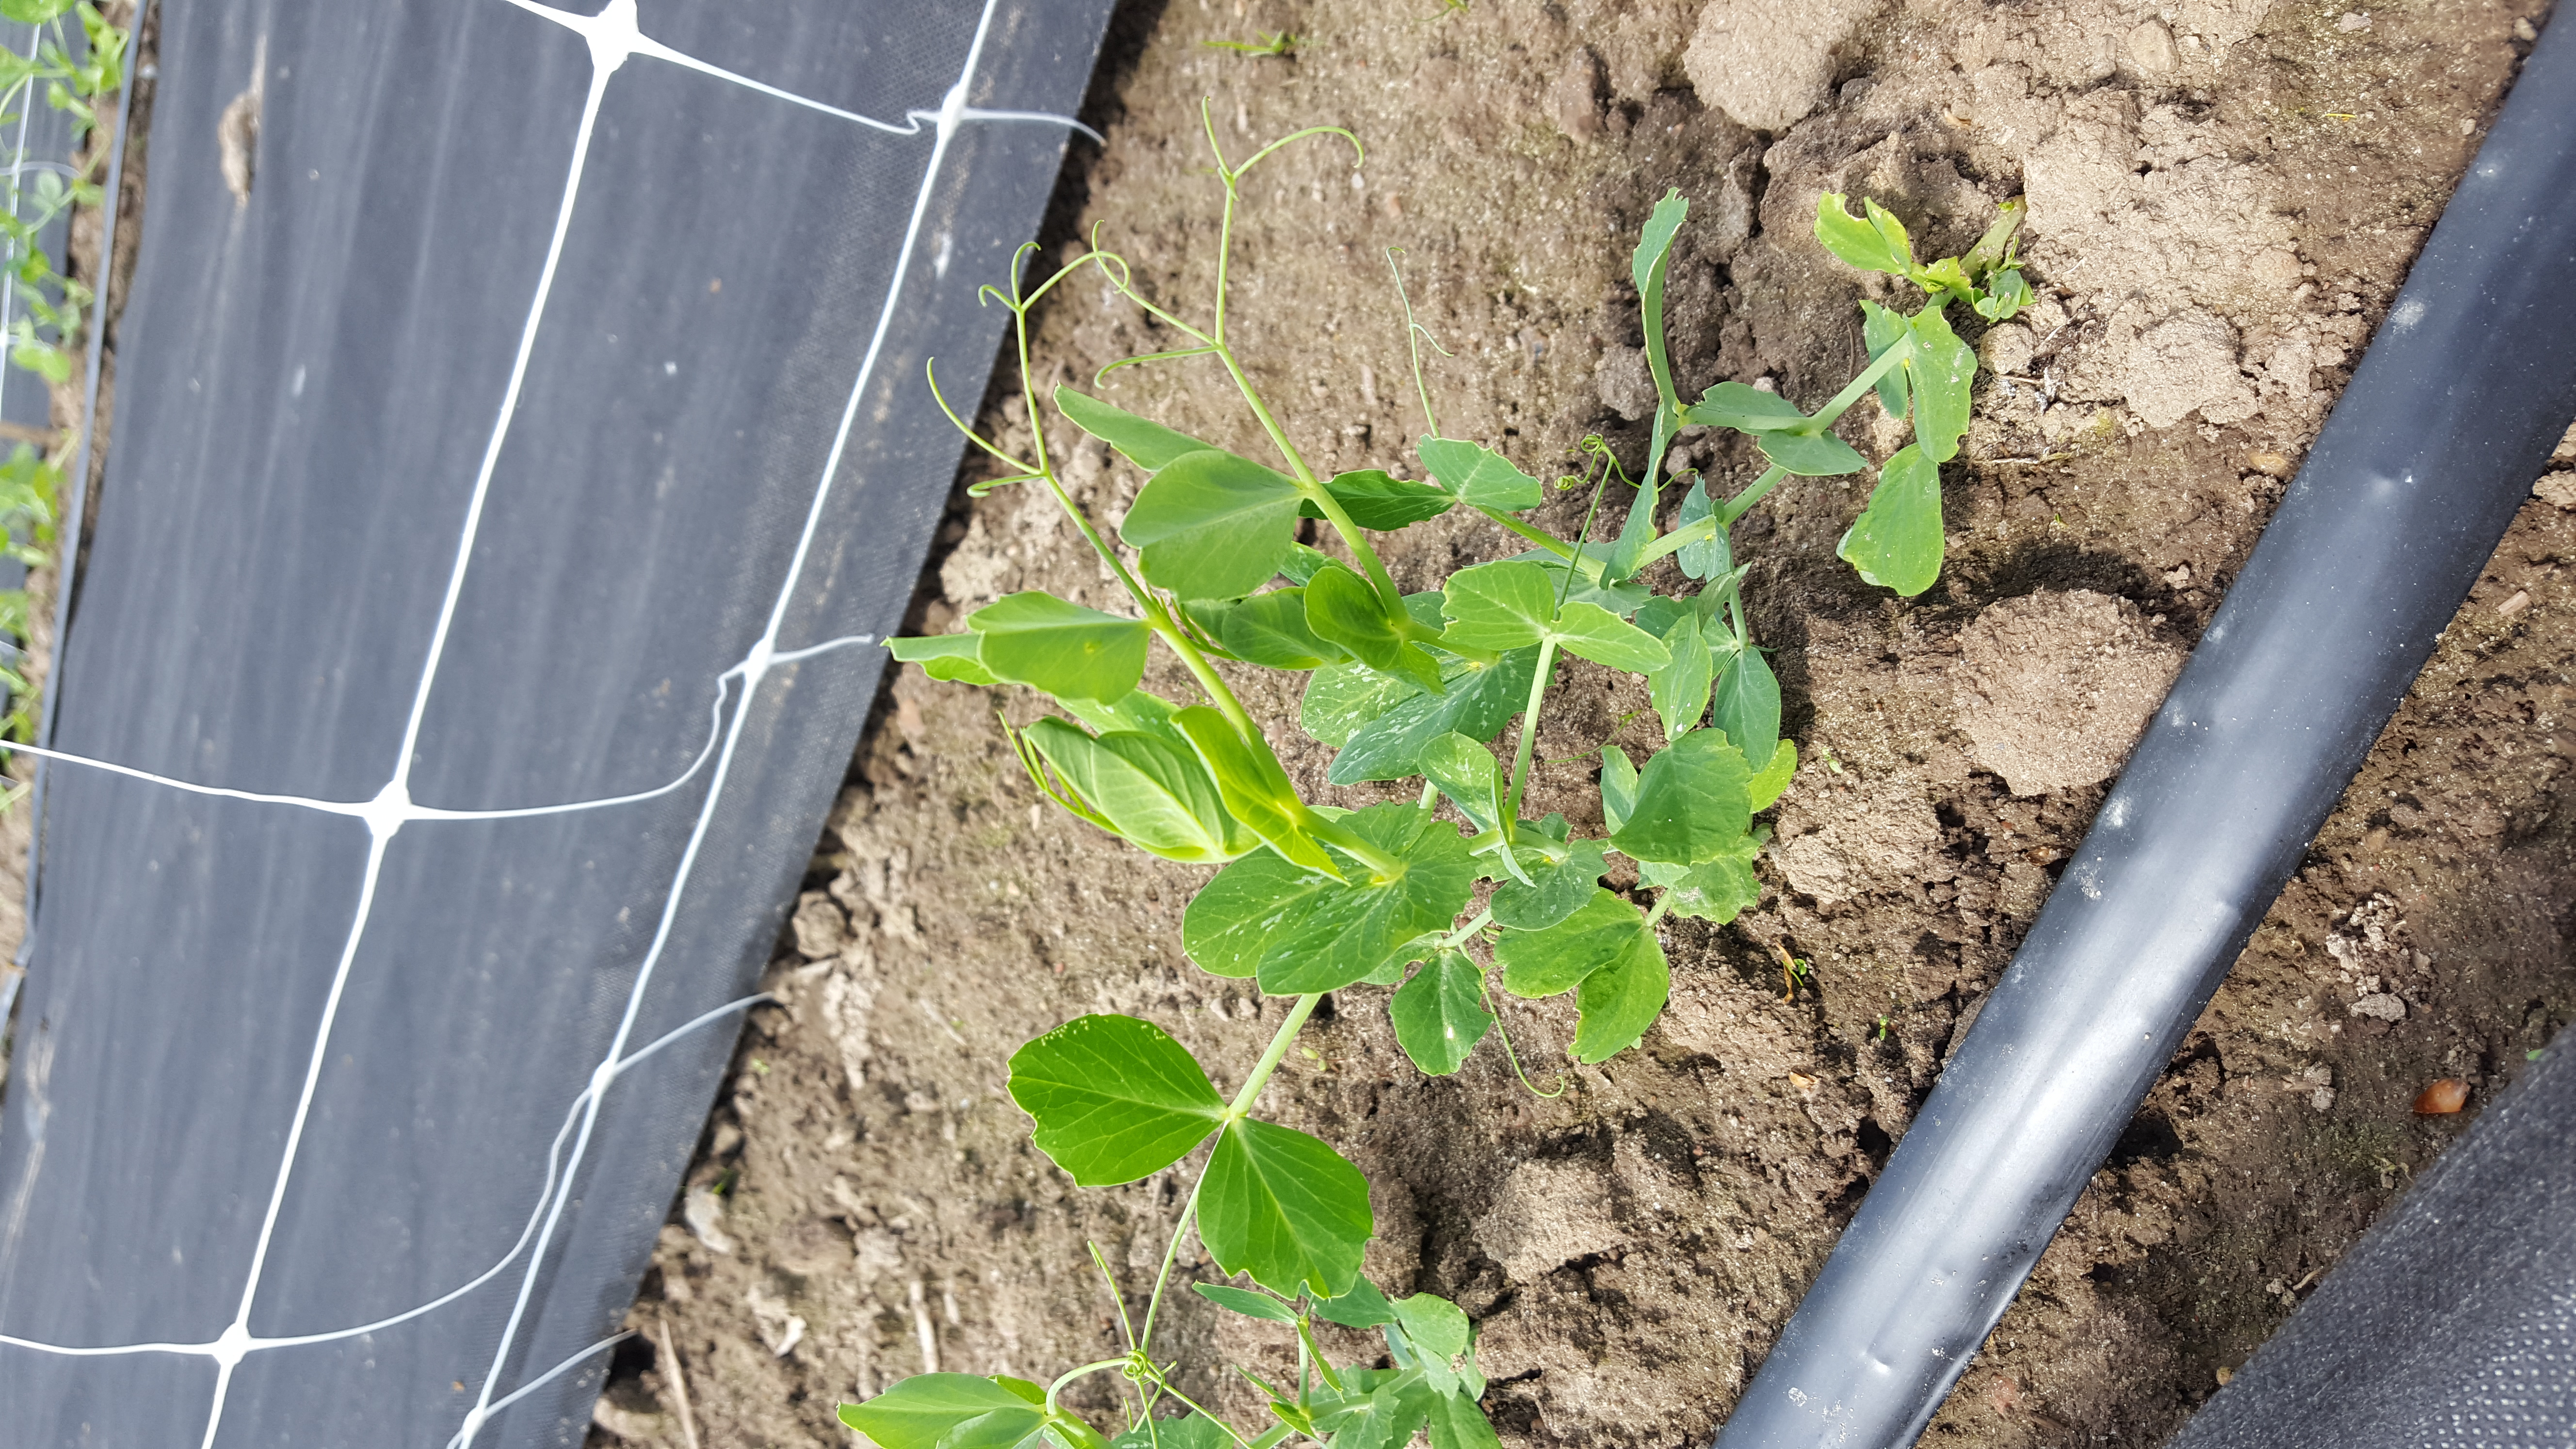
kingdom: Plantae
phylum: Tracheophyta
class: Magnoliopsida
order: Fabales
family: Fabaceae
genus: Lathyrus
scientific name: Lathyrus oleraceus
